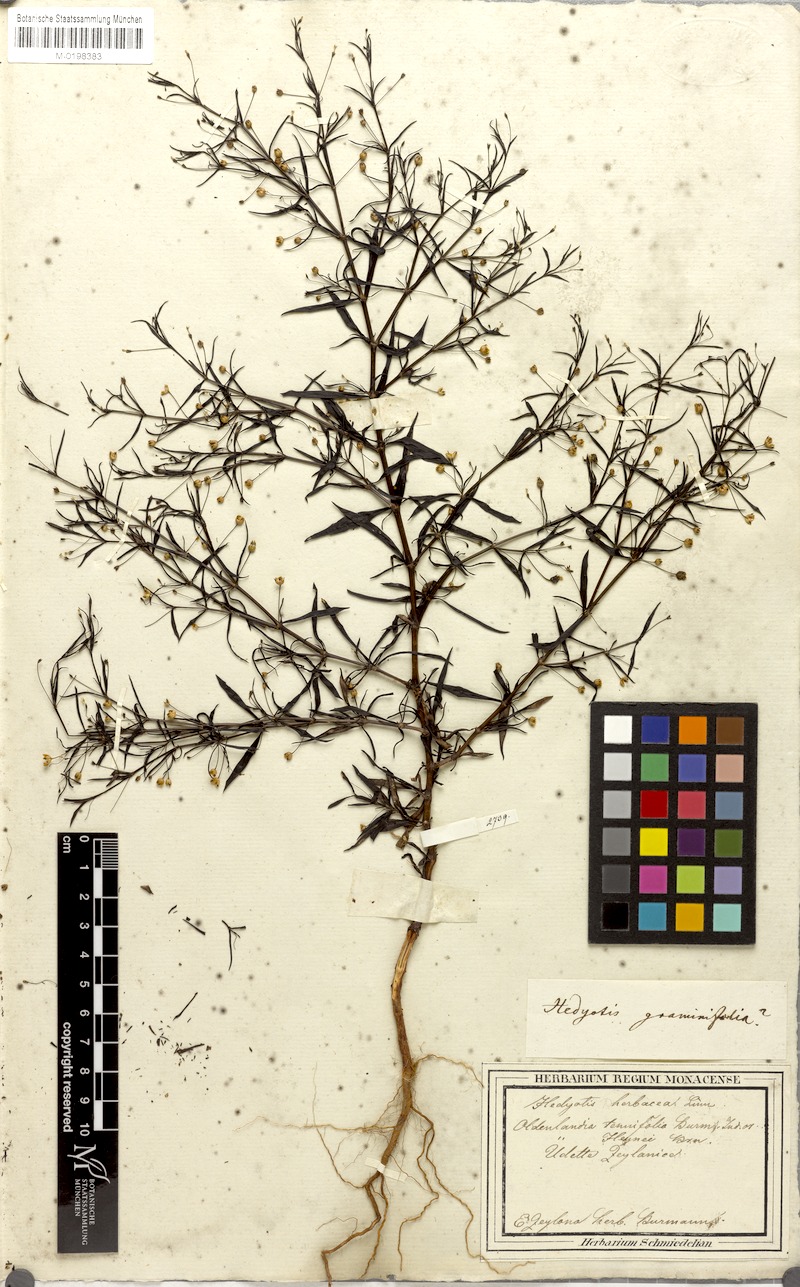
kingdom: Plantae
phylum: Tracheophyta
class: Magnoliopsida
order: Gentianales
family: Rubiaceae
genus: Oldenlandia
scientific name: Oldenlandia herbacea
